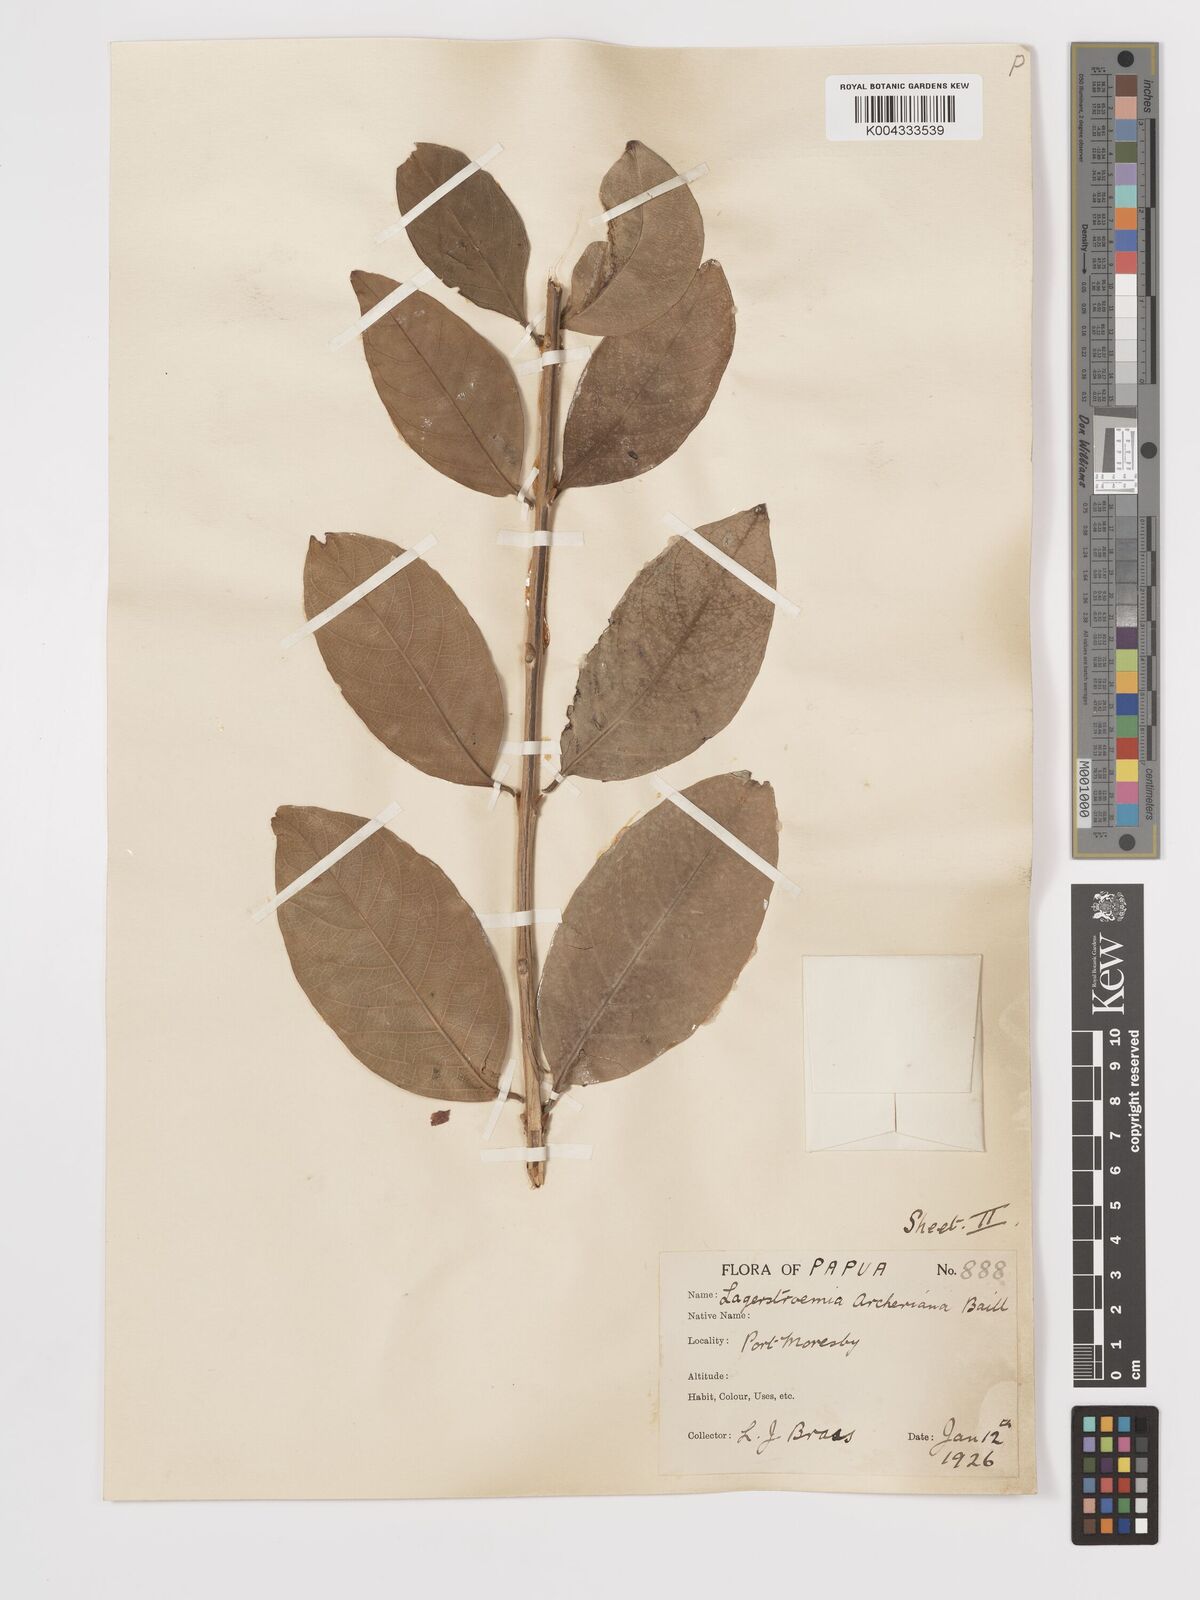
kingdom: Plantae
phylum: Tracheophyta
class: Magnoliopsida
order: Myrtales
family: Lythraceae
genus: Lagerstroemia
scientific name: Lagerstroemia engleriana
